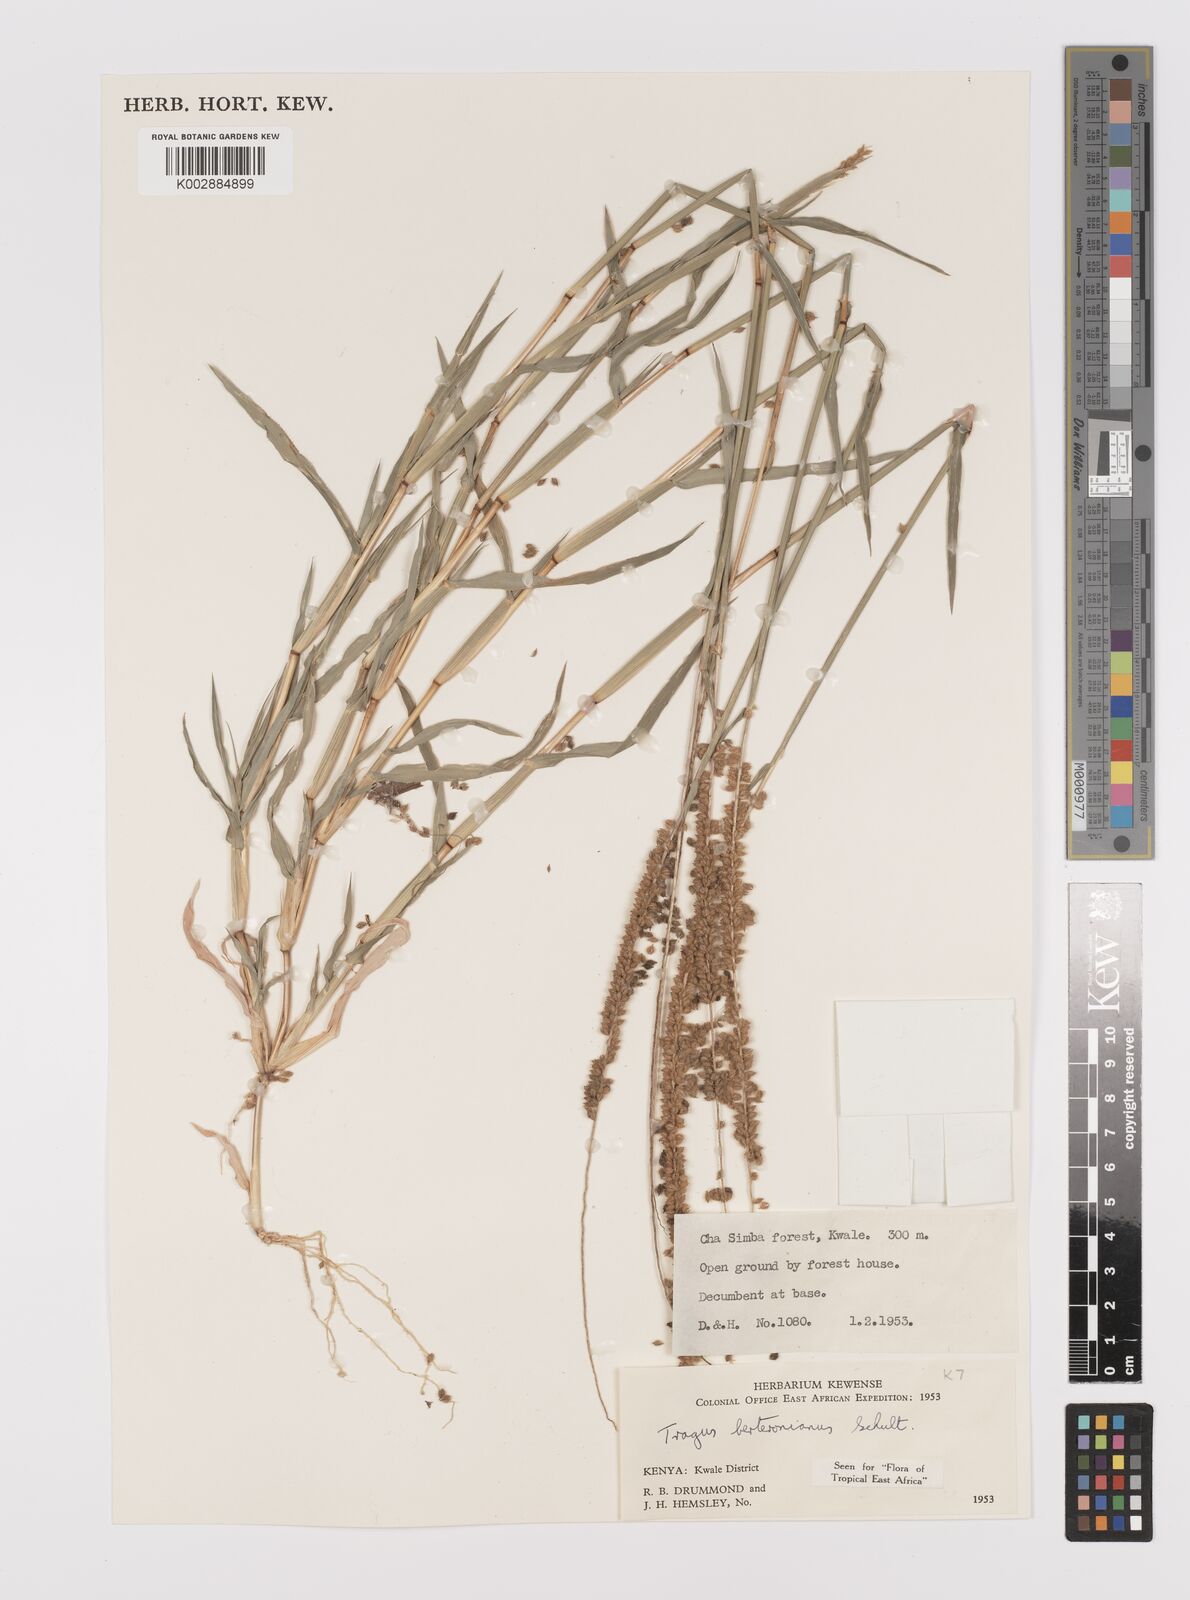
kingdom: Plantae
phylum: Tracheophyta
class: Liliopsida
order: Poales
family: Poaceae
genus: Tragus
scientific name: Tragus berteronianus
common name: African bur-grass
